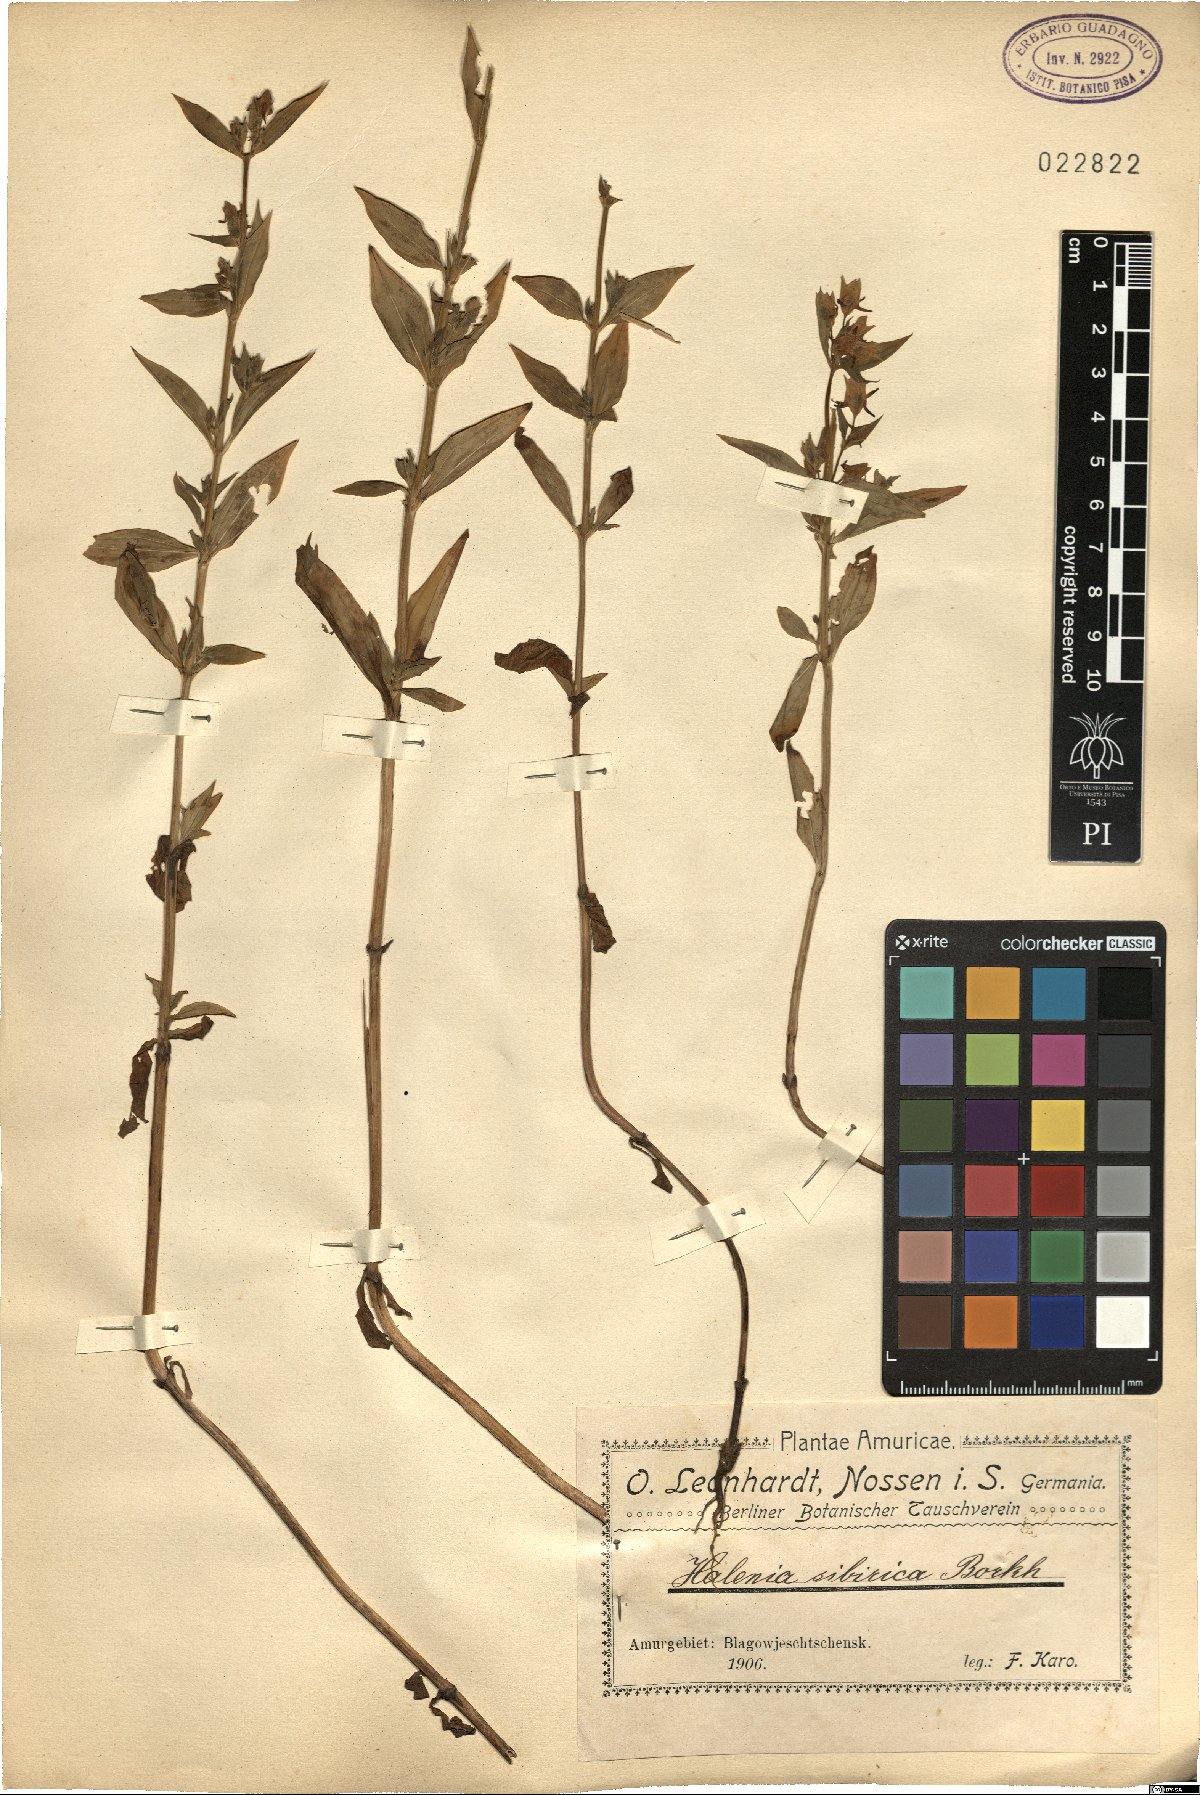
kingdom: Plantae
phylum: Tracheophyta
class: Magnoliopsida
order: Gentianales
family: Gentianaceae
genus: Halenia
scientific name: Halenia corniculata
